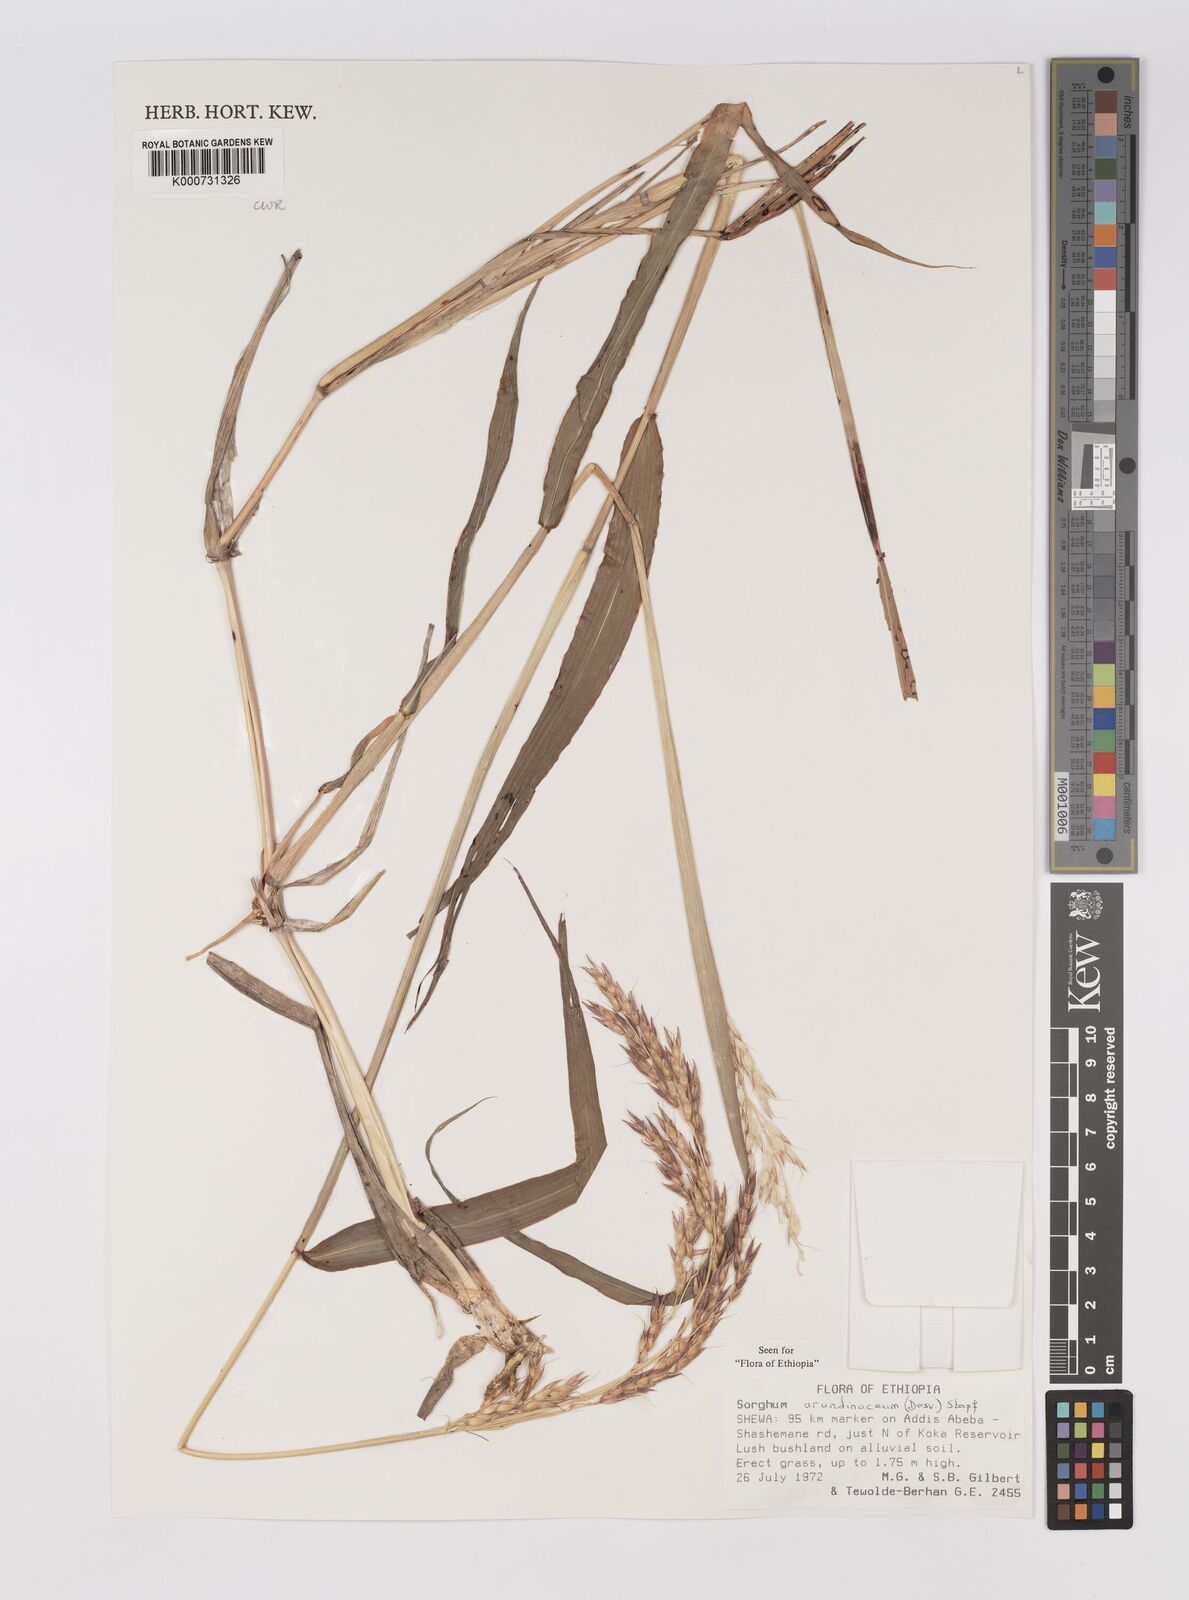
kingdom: Plantae
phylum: Tracheophyta
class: Liliopsida
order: Poales
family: Poaceae
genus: Sorghum
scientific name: Sorghum arundinaceum
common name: Sorghum
